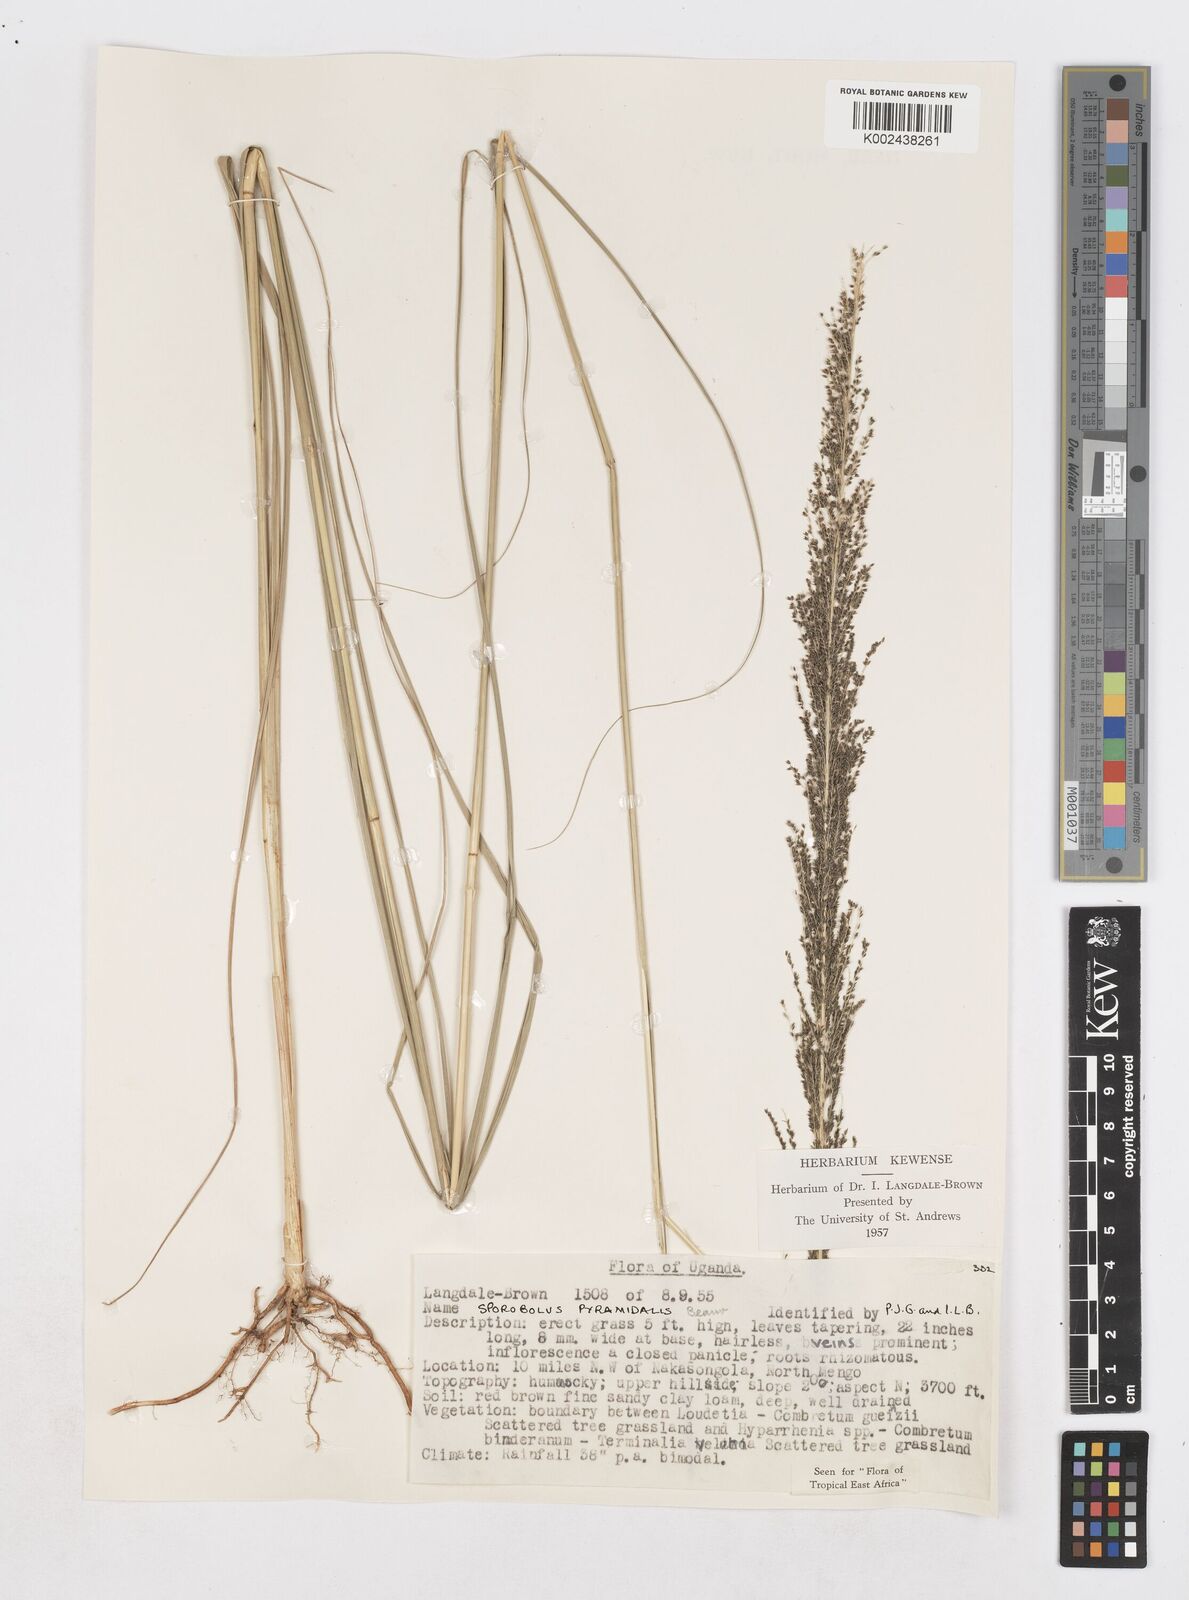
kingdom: Plantae
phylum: Tracheophyta
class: Liliopsida
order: Poales
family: Poaceae
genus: Sporobolus
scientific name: Sporobolus pyramidalis
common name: West indian dropseed
